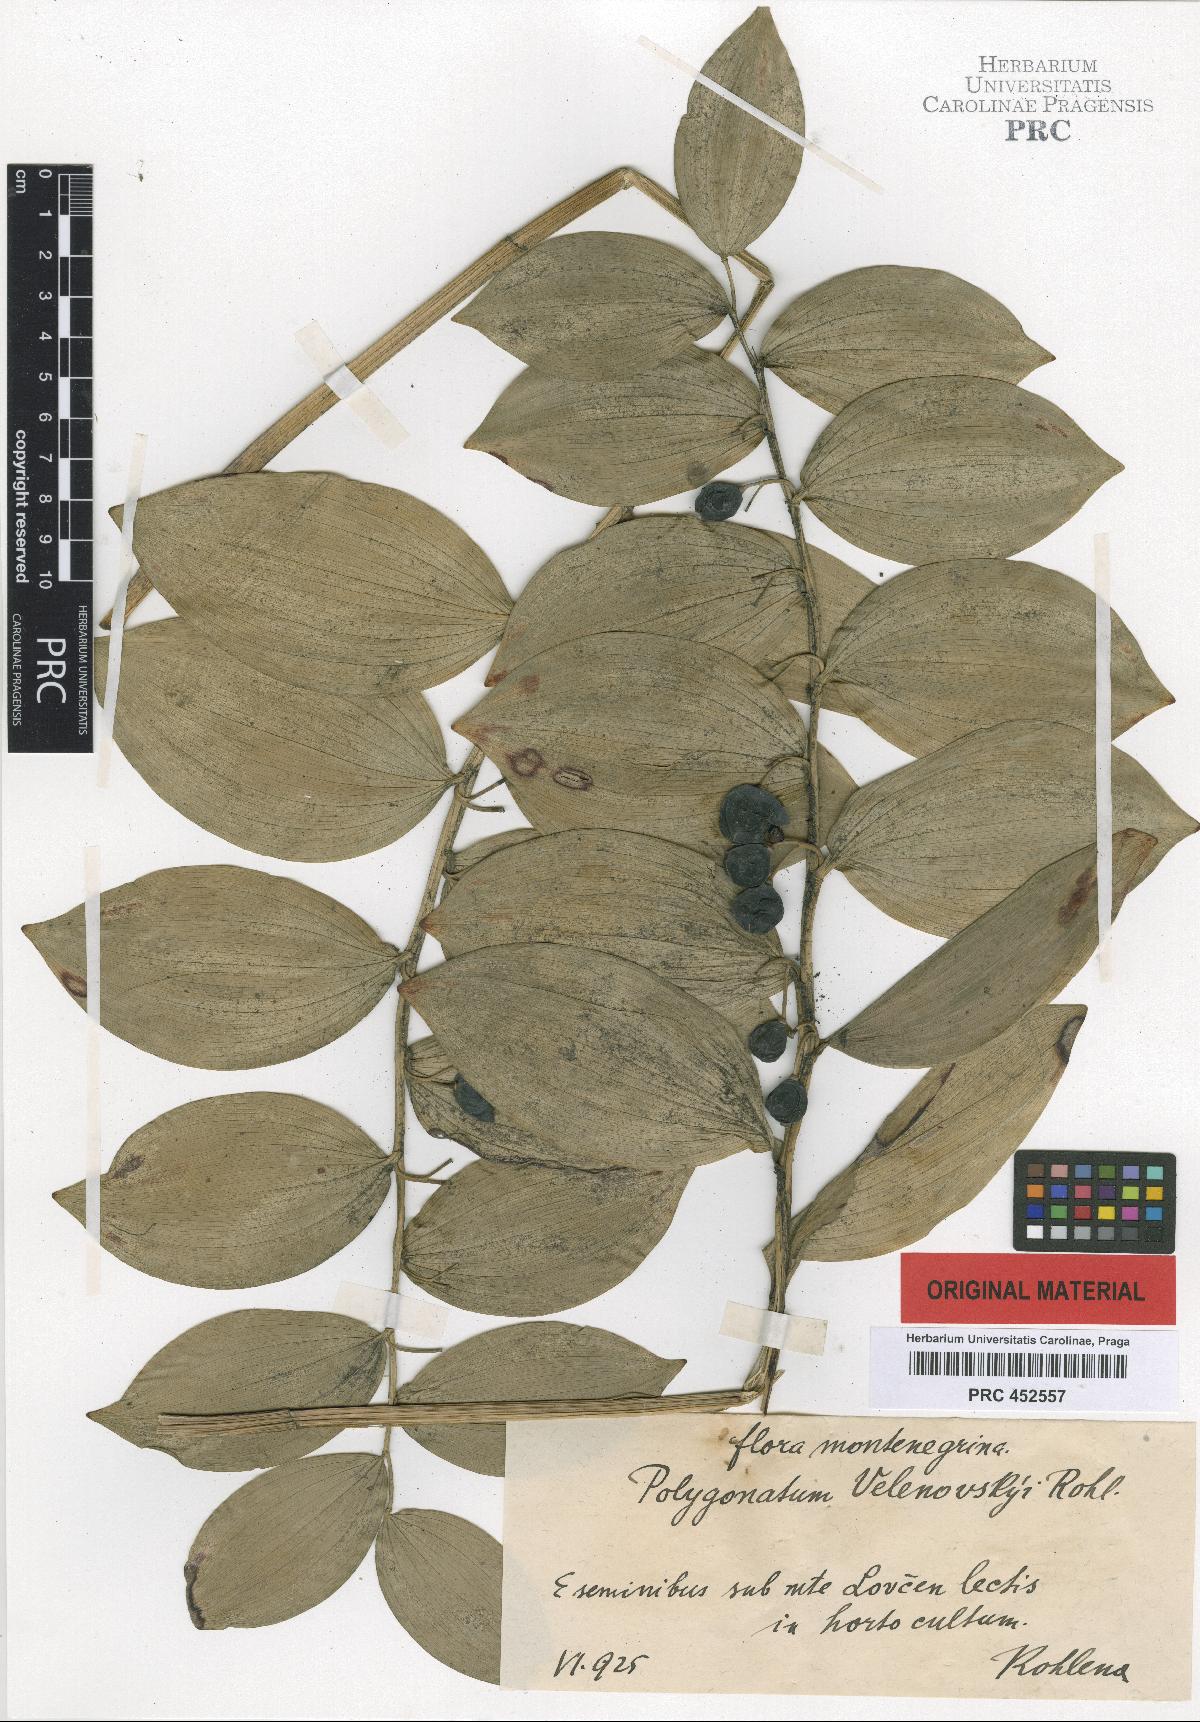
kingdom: Plantae
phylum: Tracheophyta
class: Liliopsida
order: Asparagales
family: Asparagaceae
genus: Polygonatum
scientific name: Polygonatum velenovskyi
